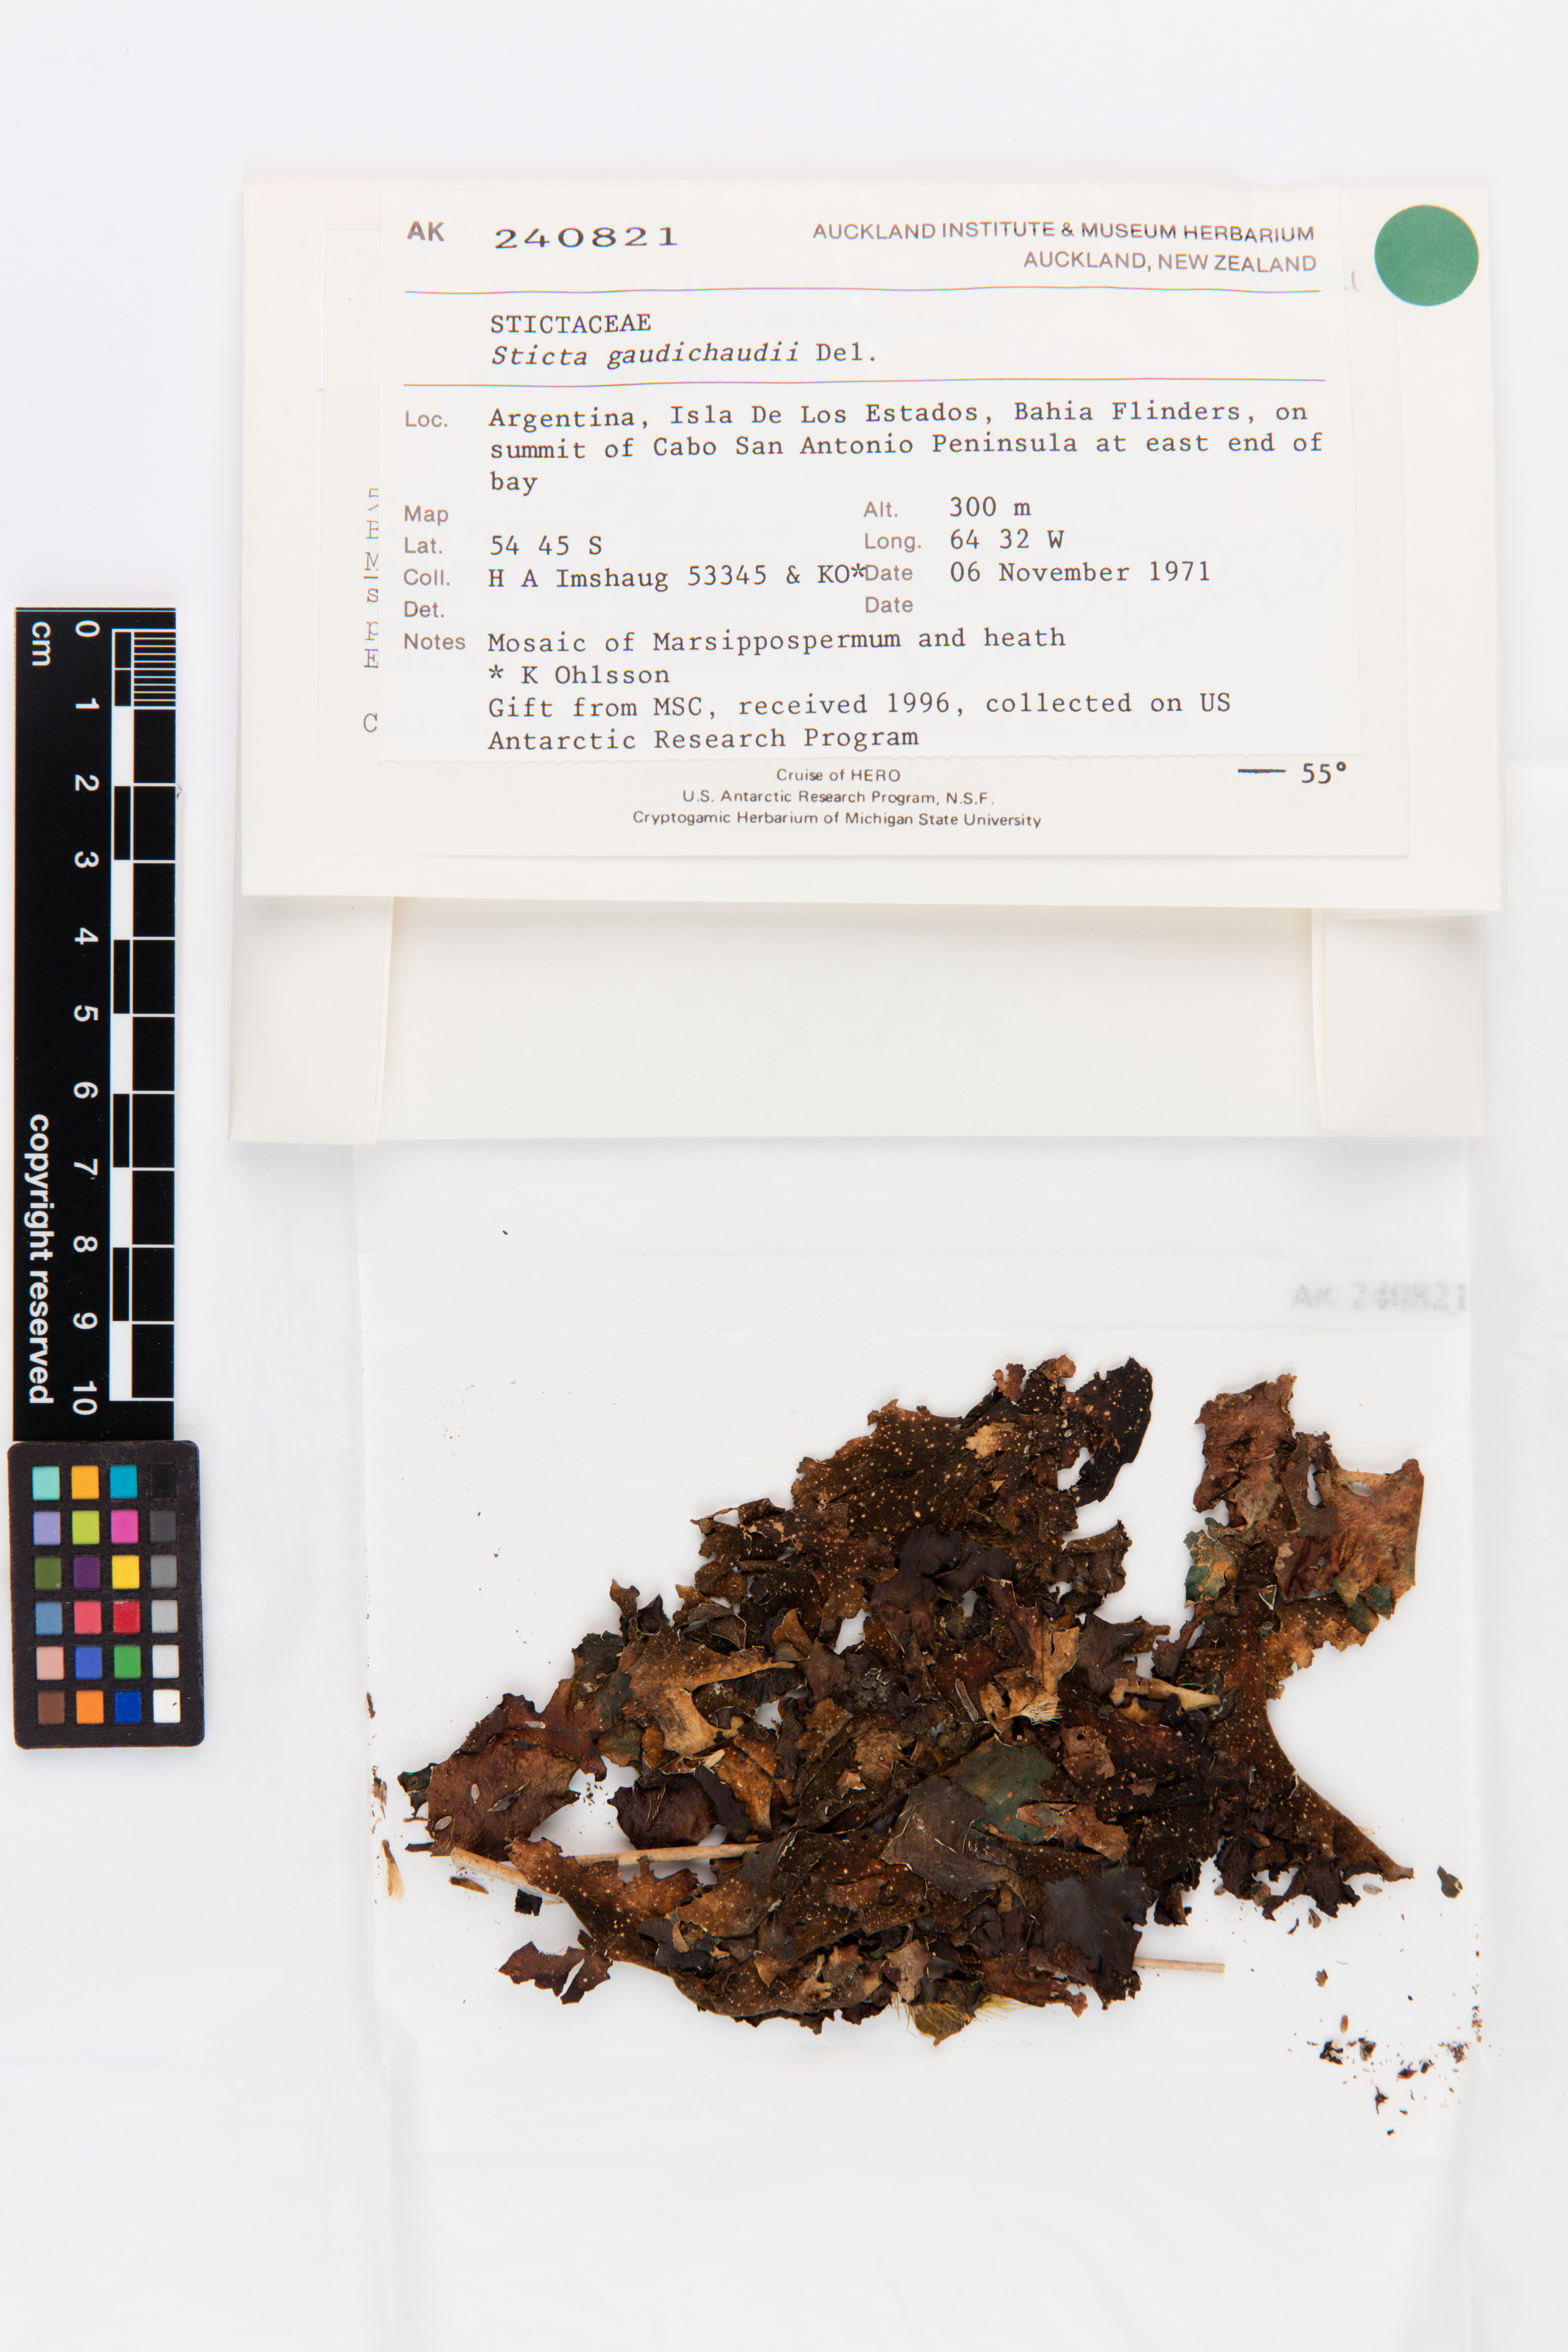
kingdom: Fungi
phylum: Ascomycota
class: Lecanoromycetes
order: Peltigerales
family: Lobariaceae
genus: Sticta
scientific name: Sticta gaudichaudii
